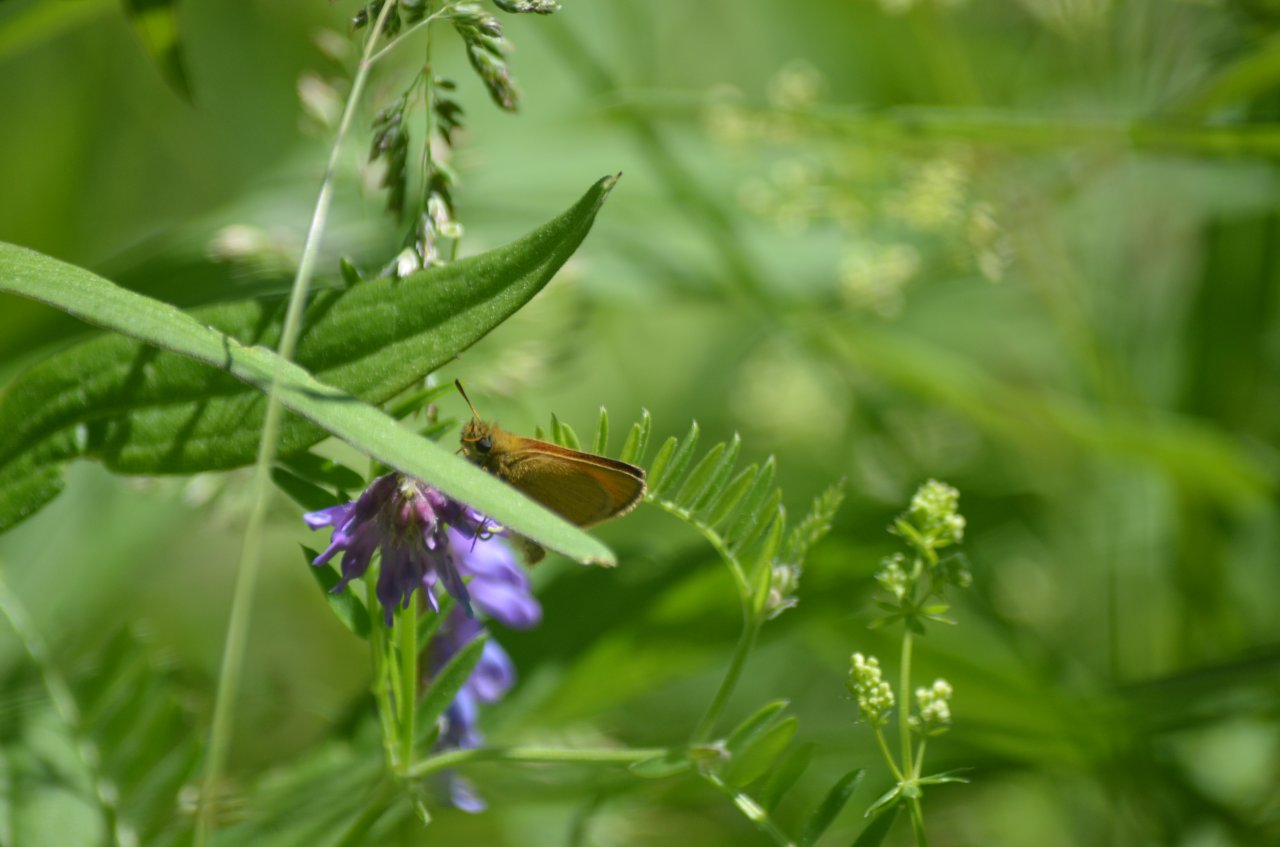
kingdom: Animalia
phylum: Arthropoda
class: Insecta
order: Lepidoptera
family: Hesperiidae
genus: Thymelicus
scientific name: Thymelicus lineola
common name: European Skipper
